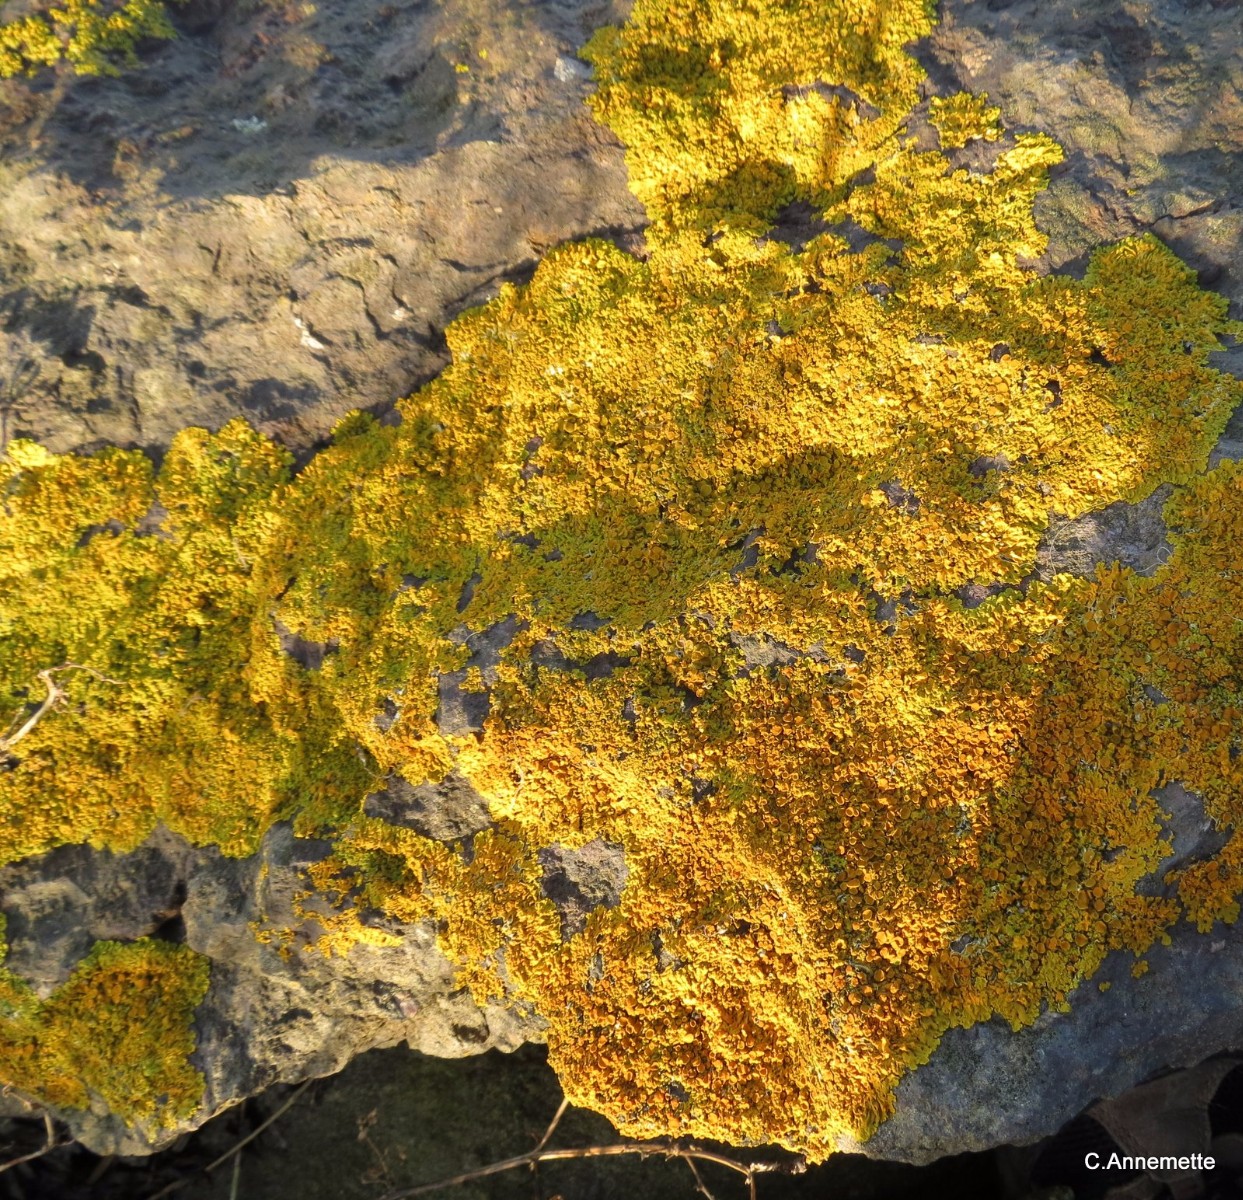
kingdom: Fungi
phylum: Ascomycota
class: Lecanoromycetes
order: Teloschistales
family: Teloschistaceae
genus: Xanthoria
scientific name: Xanthoria parietina
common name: almindelig væggelav
